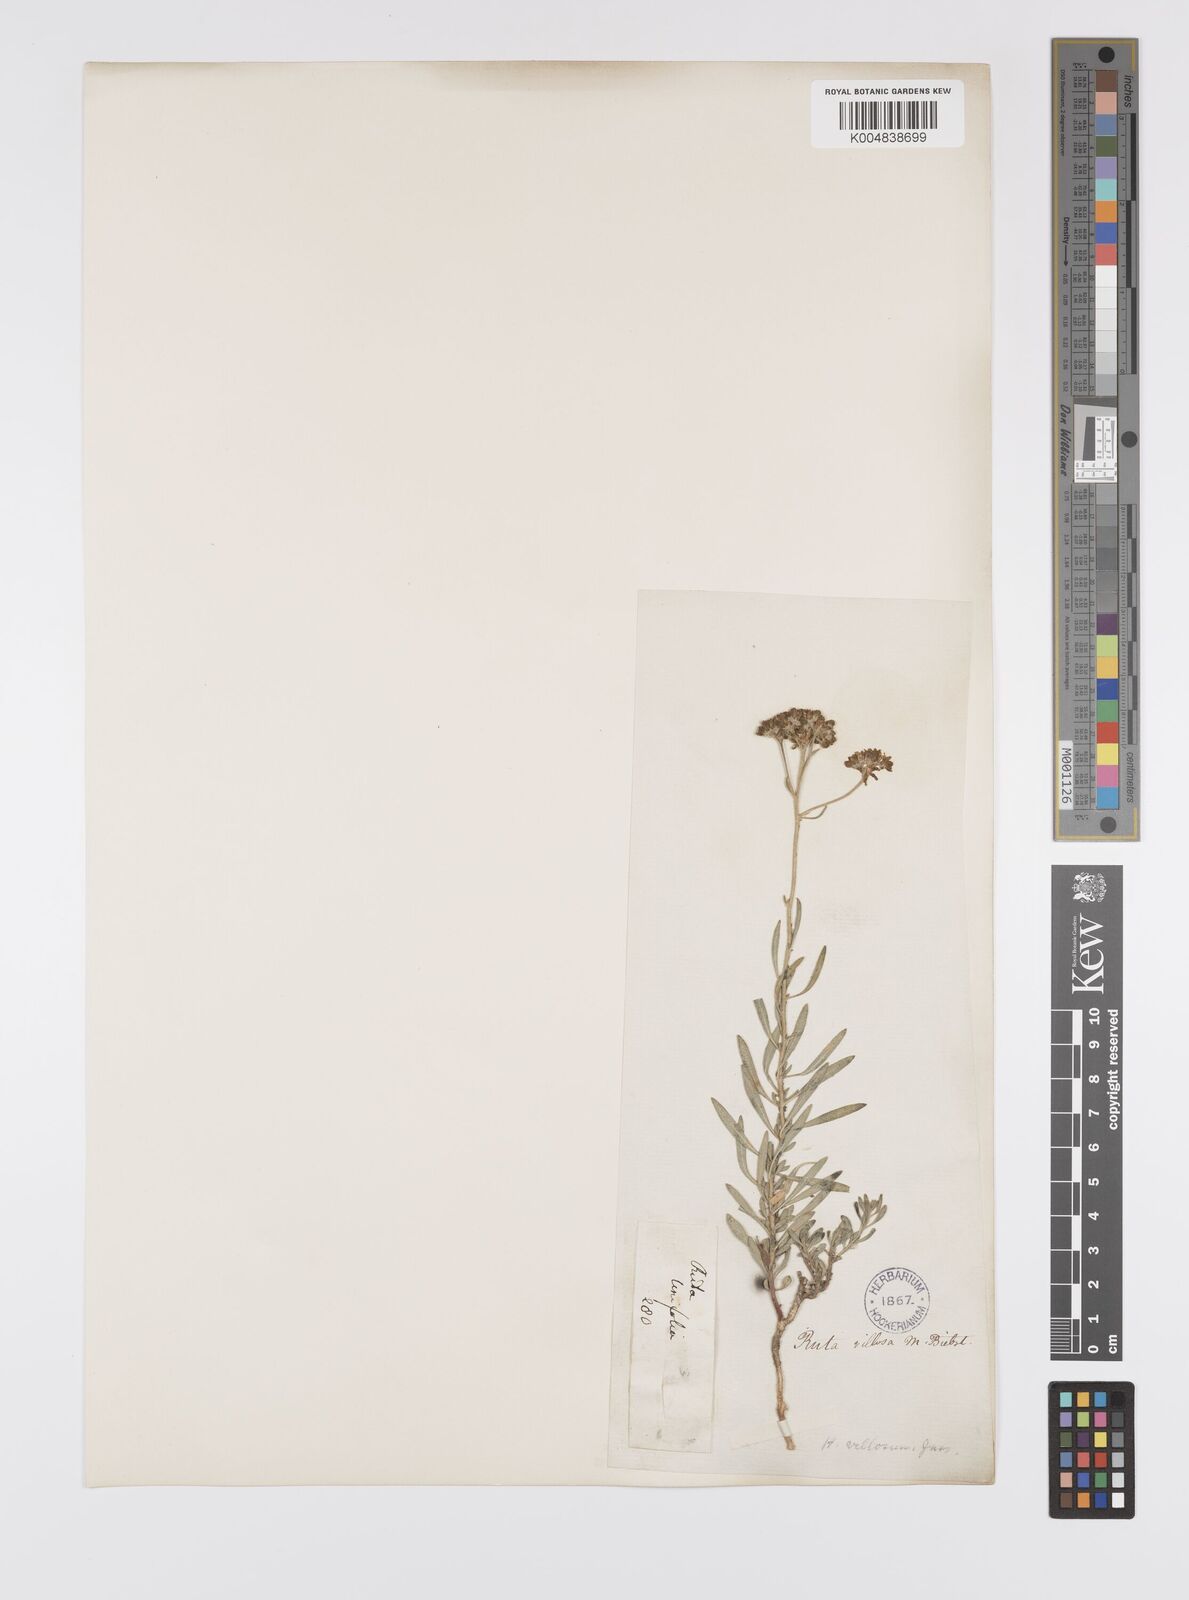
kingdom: Plantae
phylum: Tracheophyta
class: Magnoliopsida
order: Sapindales
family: Rutaceae
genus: Haplophyllum
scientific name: Haplophyllum villosum
